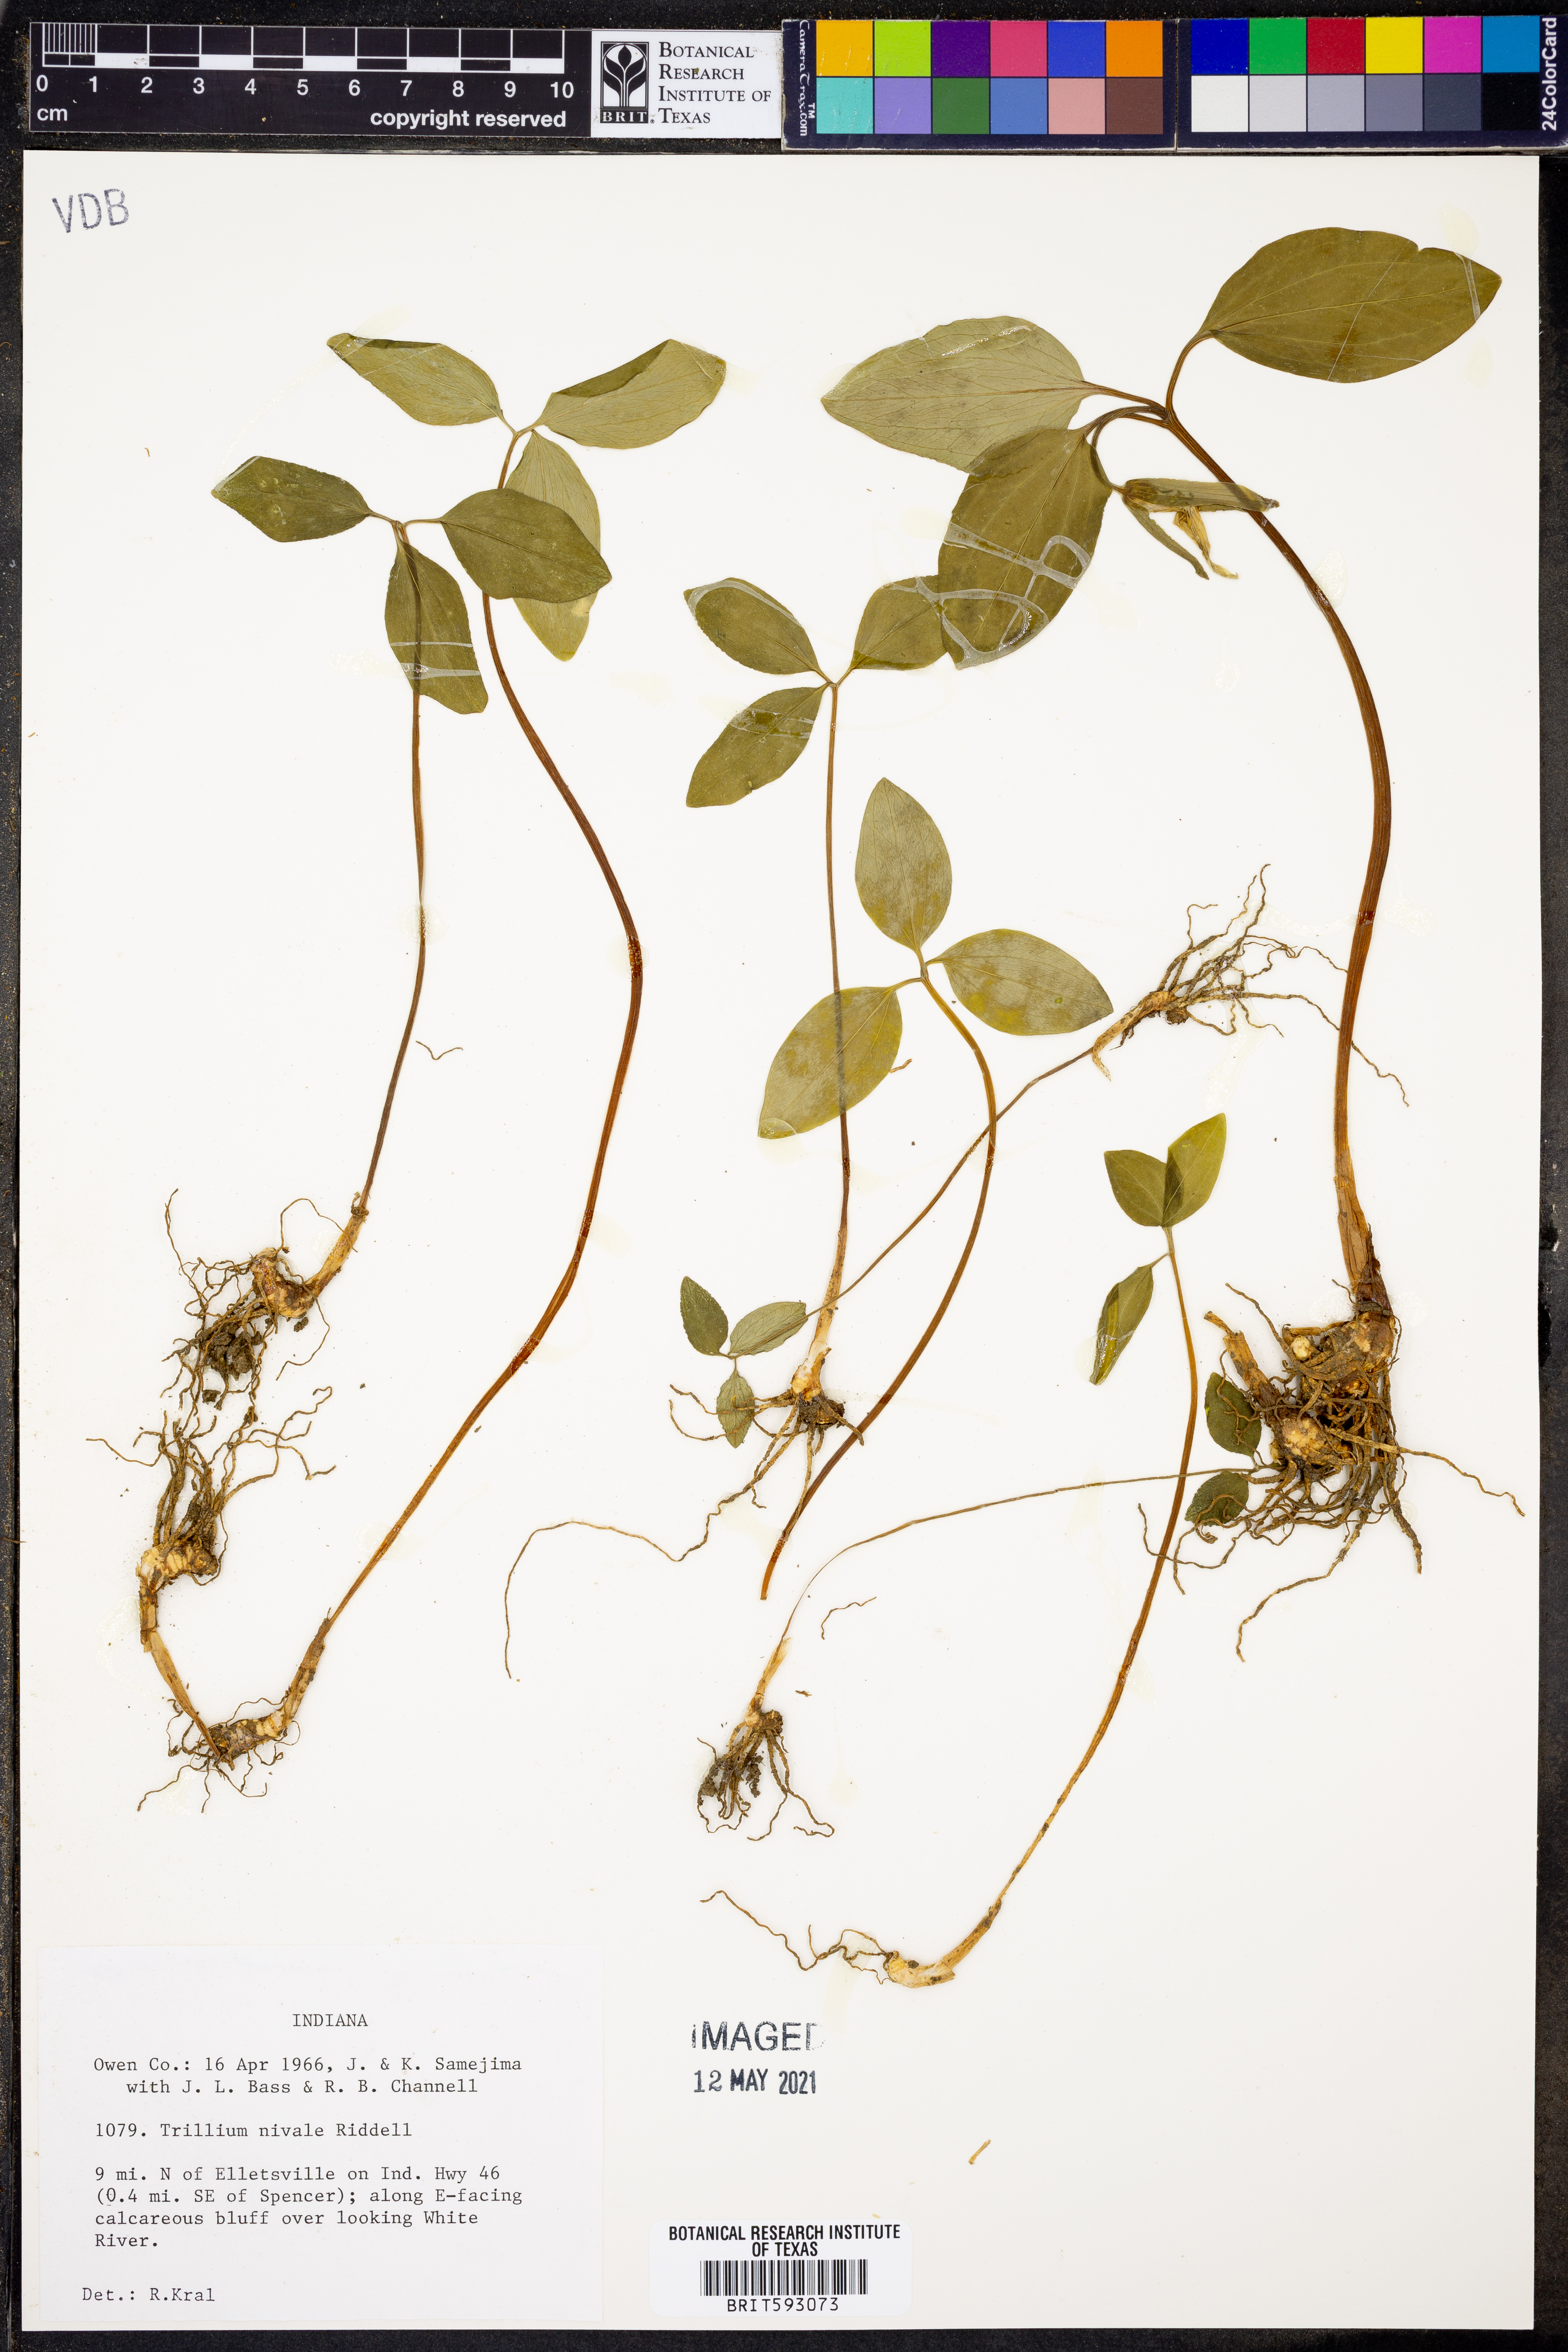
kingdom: Plantae
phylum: Tracheophyta
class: Liliopsida
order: Liliales
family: Melanthiaceae
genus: Trillium
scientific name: Trillium nivale
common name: Dwarf white trillium
